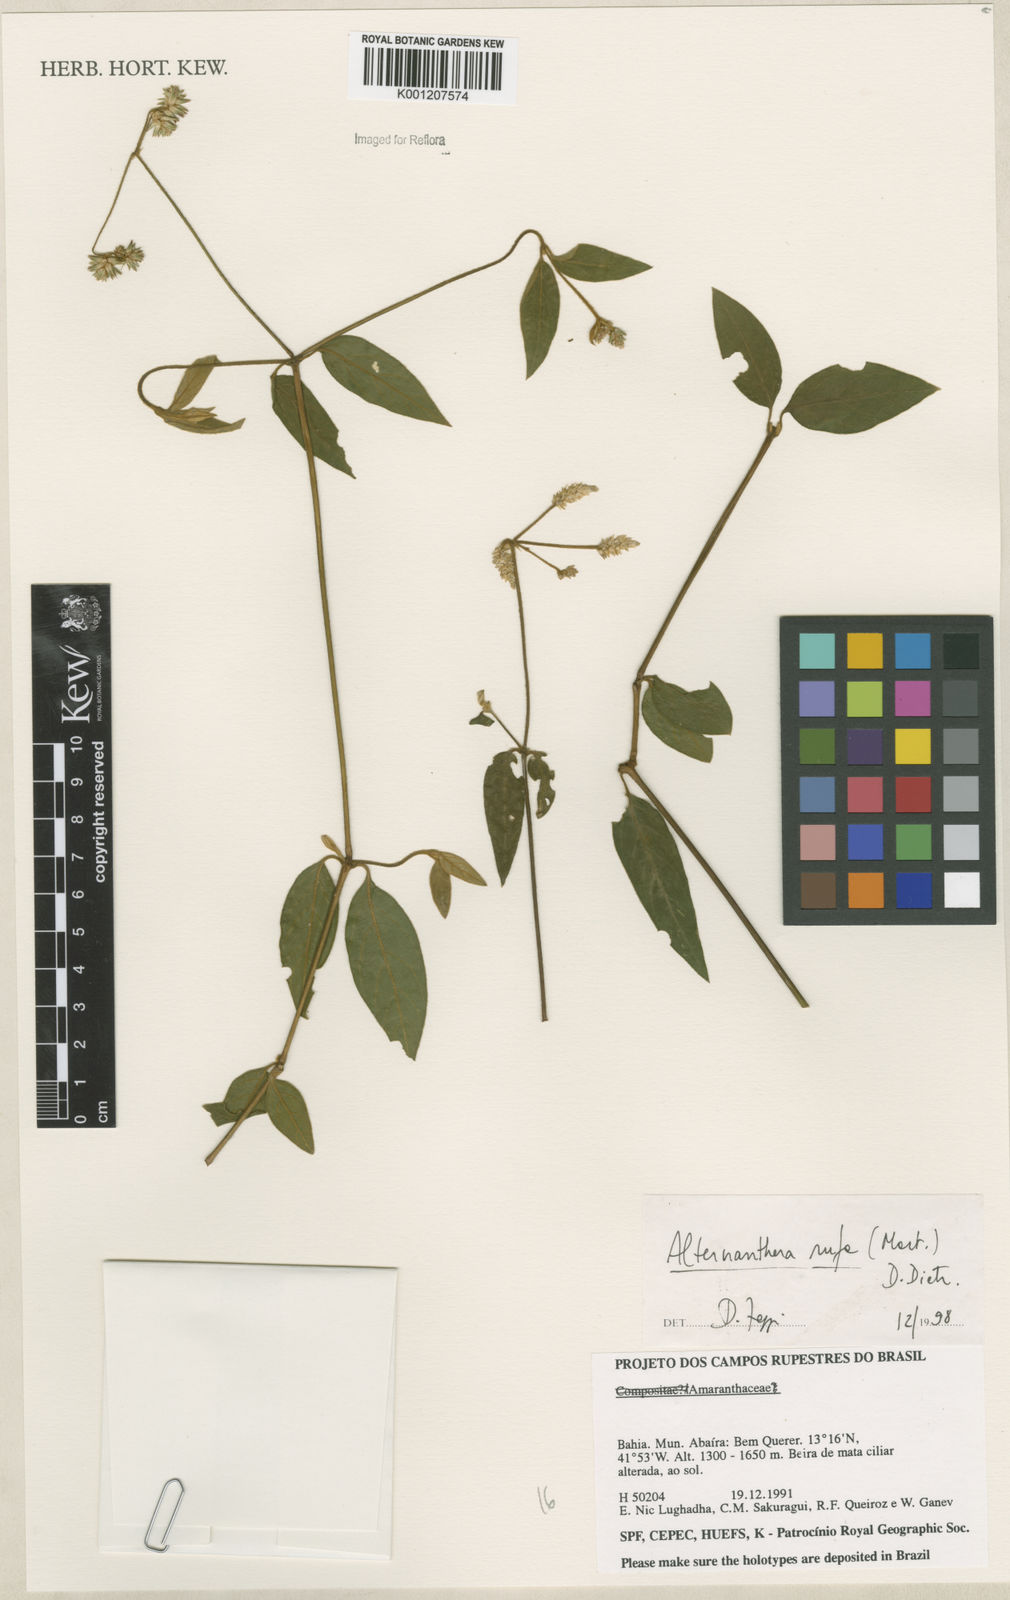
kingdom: Plantae
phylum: Tracheophyta
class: Magnoliopsida
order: Caryophyllales
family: Amaranthaceae
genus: Alternanthera
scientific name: Alternanthera rufa
